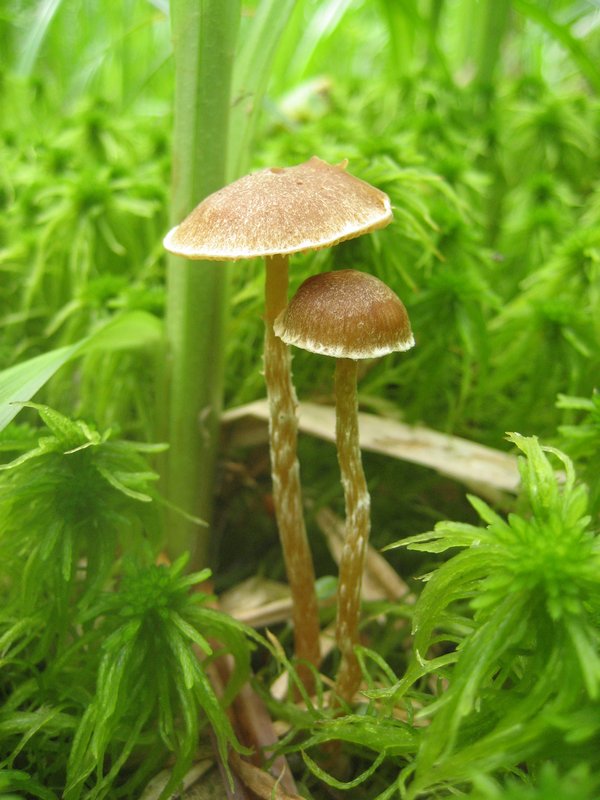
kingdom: Fungi
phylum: Basidiomycota
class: Agaricomycetes
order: Agaricales
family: Hymenogastraceae
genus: Galerina
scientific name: Galerina paludosa
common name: mose-hjelmhat
